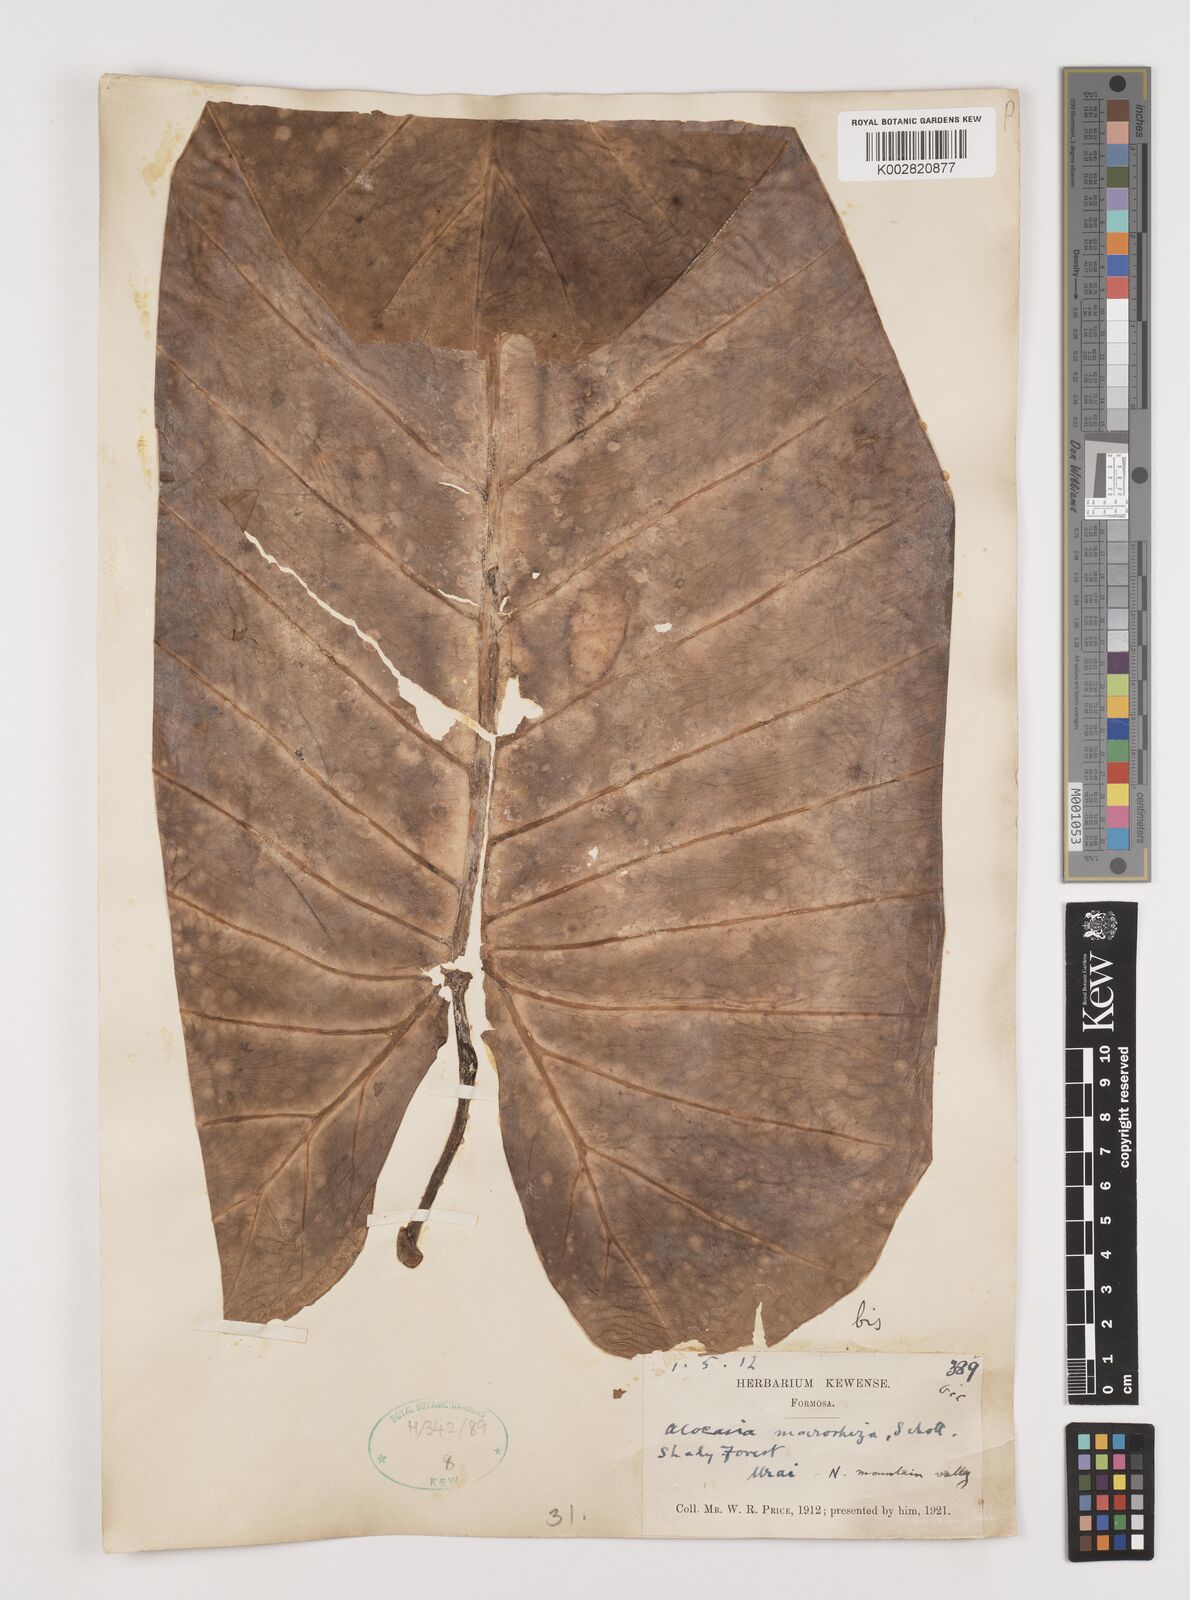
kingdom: Plantae
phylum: Tracheophyta
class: Liliopsida
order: Alismatales
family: Araceae
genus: Alocasia
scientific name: Alocasia macrorrhizos
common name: Giant taro
